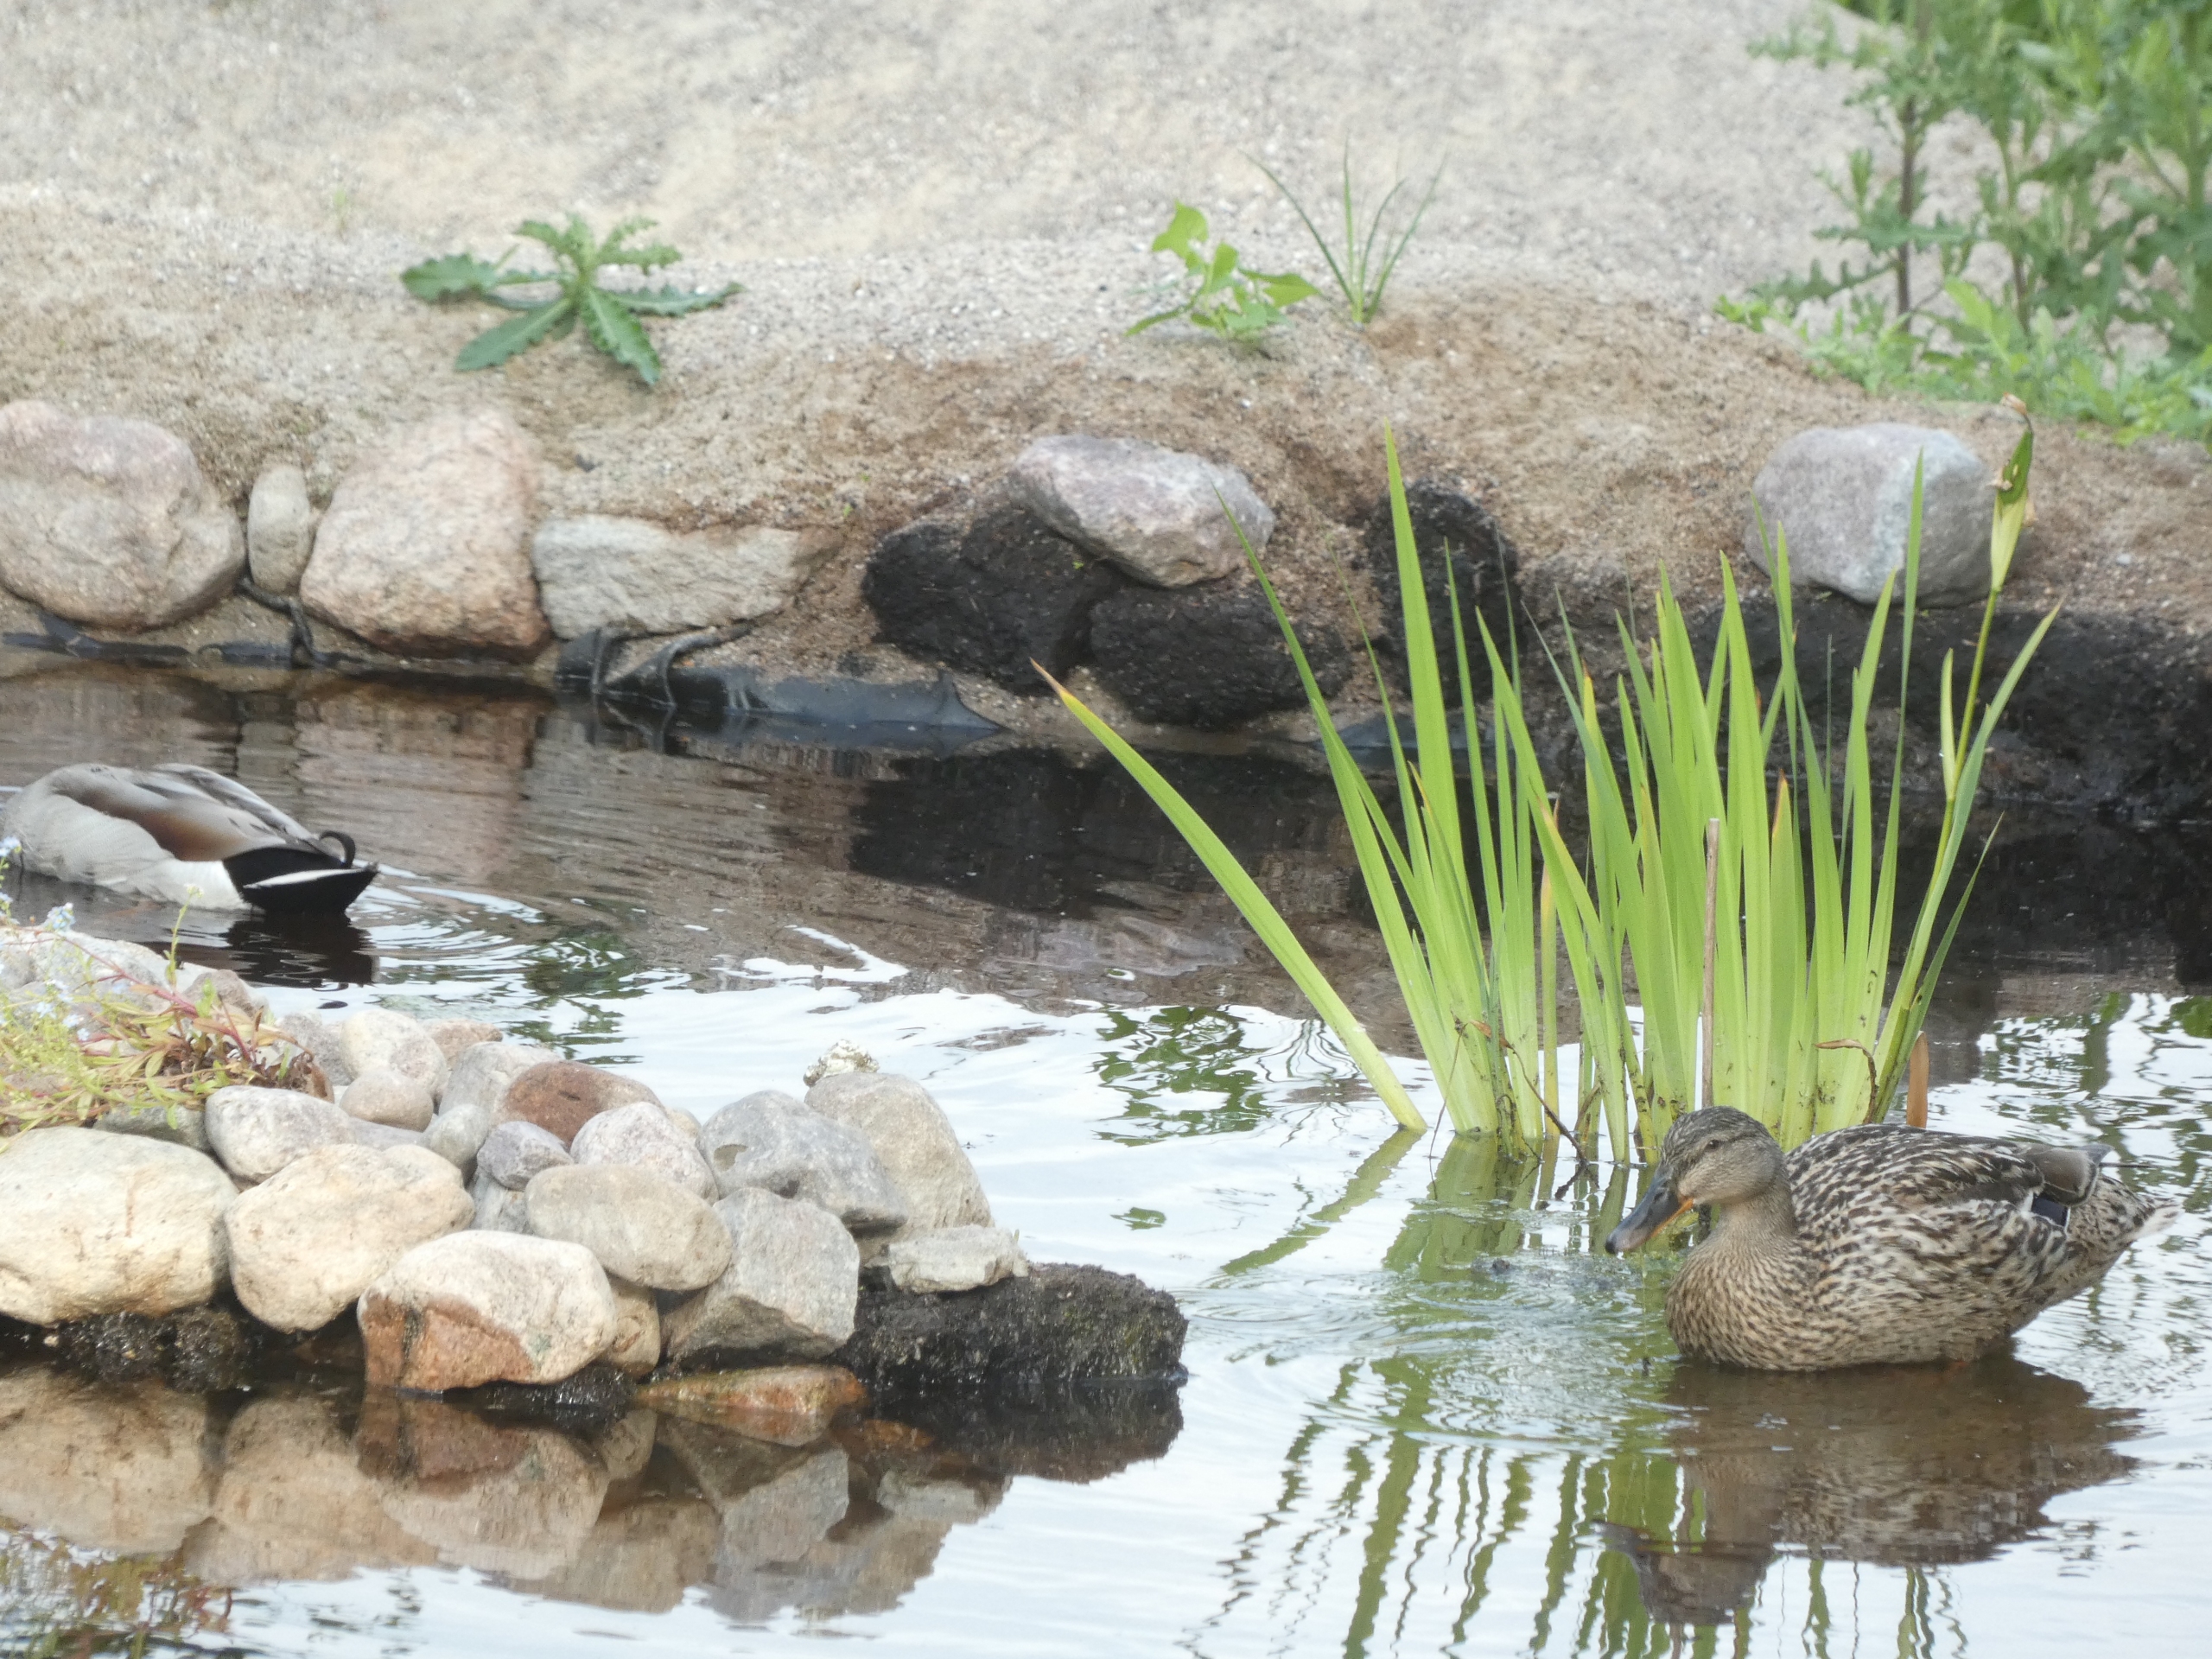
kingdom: Animalia
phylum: Chordata
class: Aves
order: Anseriformes
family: Anatidae
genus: Anas
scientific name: Anas platyrhynchos
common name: Gråand
